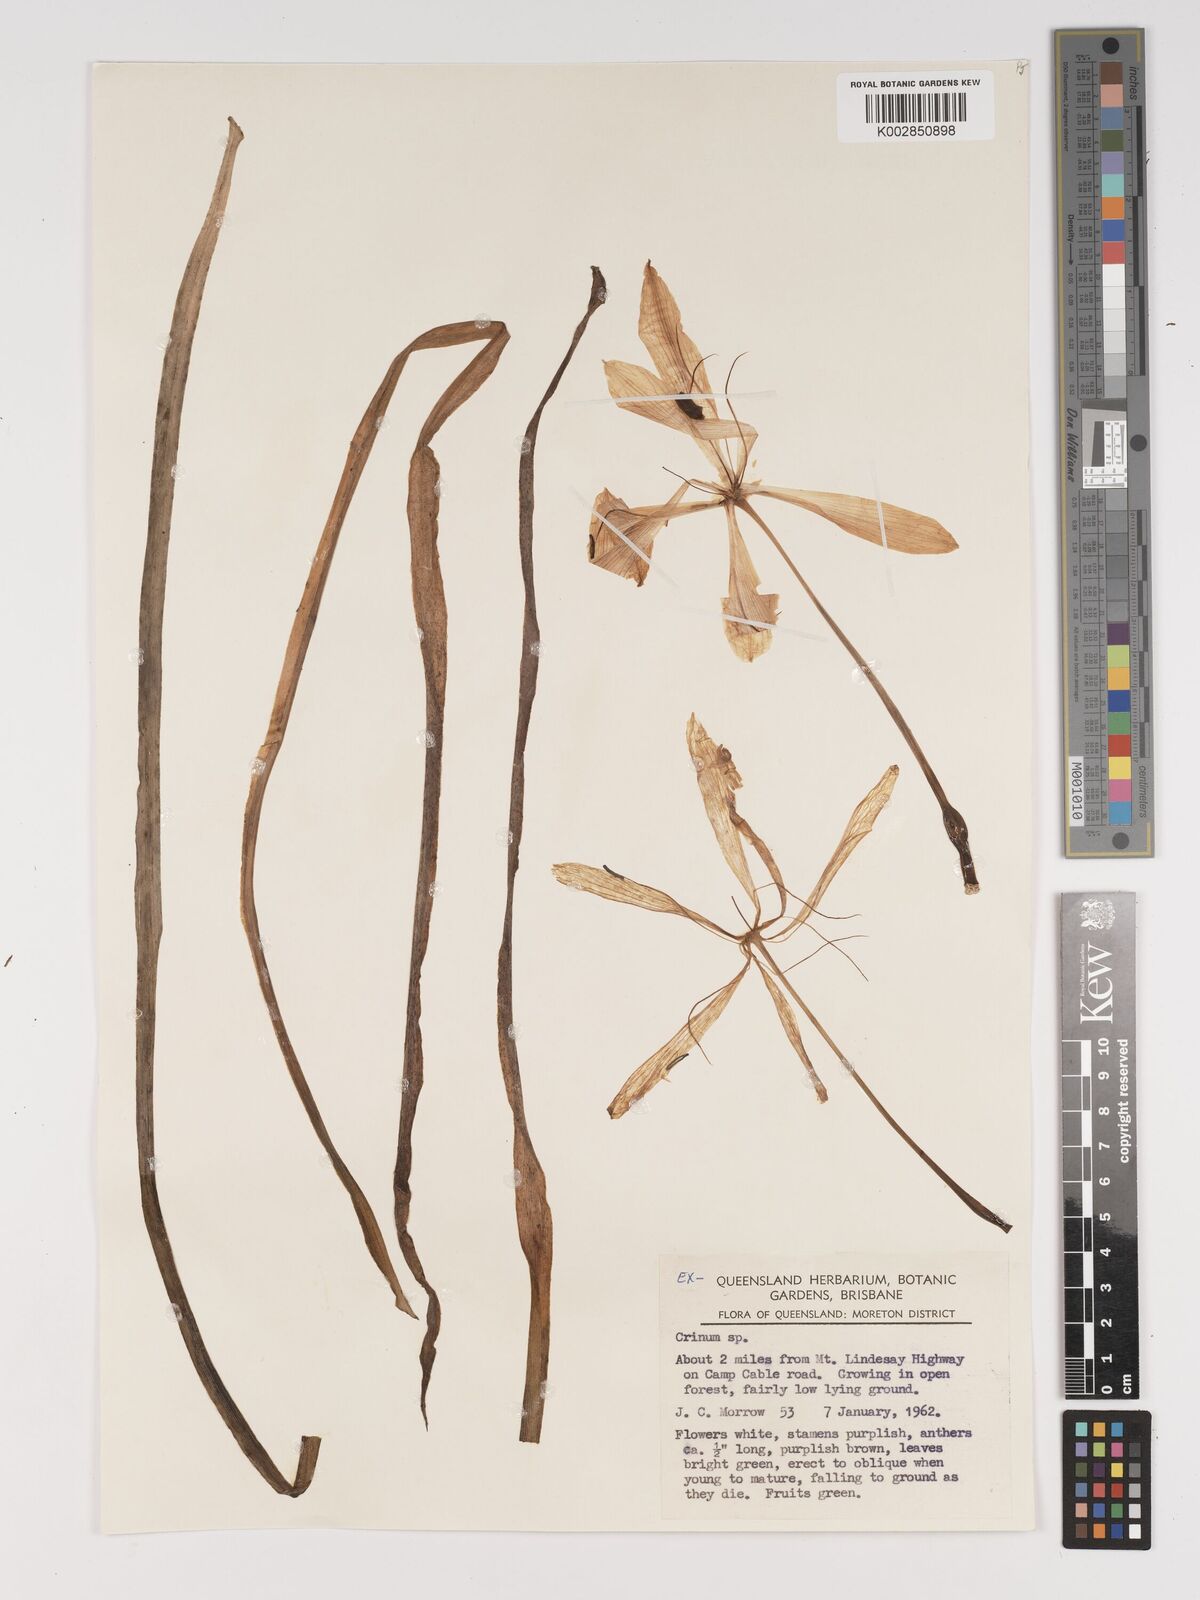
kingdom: Plantae
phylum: Tracheophyta
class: Liliopsida
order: Asparagales
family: Amaryllidaceae
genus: Crinum
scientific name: Crinum
